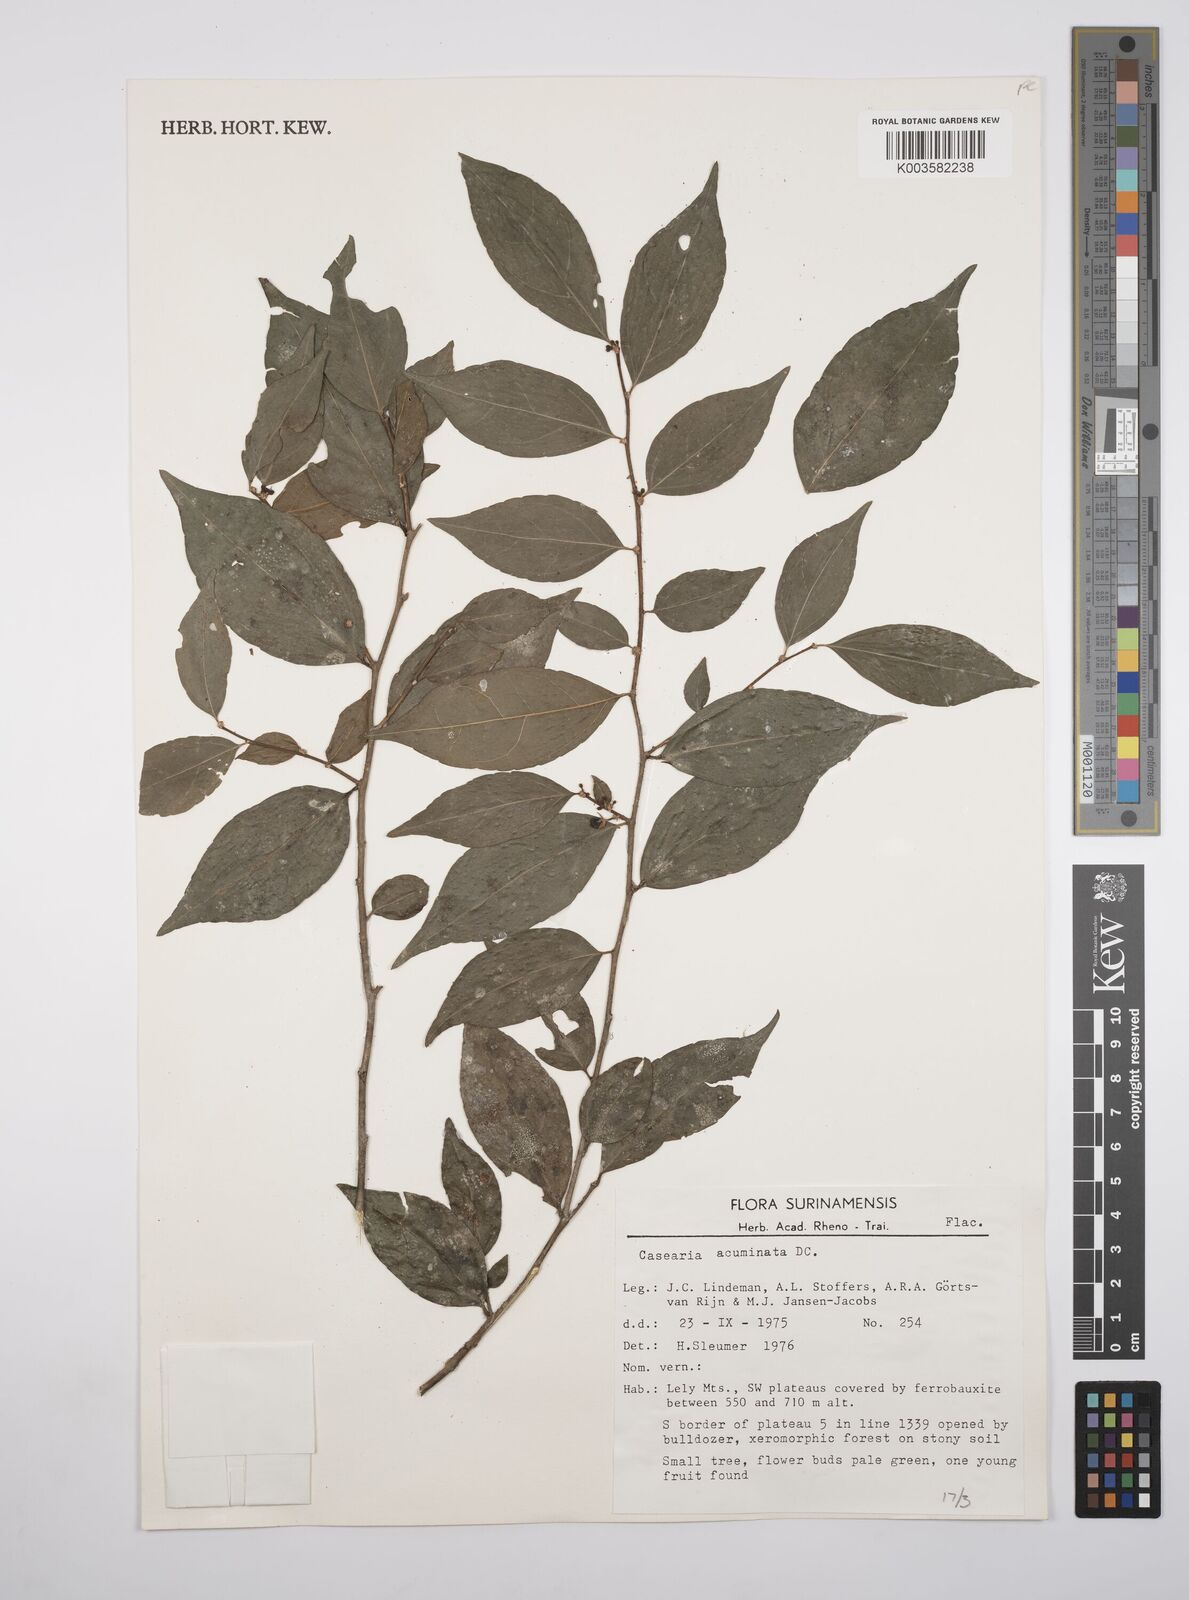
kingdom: Plantae
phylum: Tracheophyta
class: Magnoliopsida
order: Malpighiales
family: Salicaceae
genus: Casearia
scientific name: Casearia acuminata
